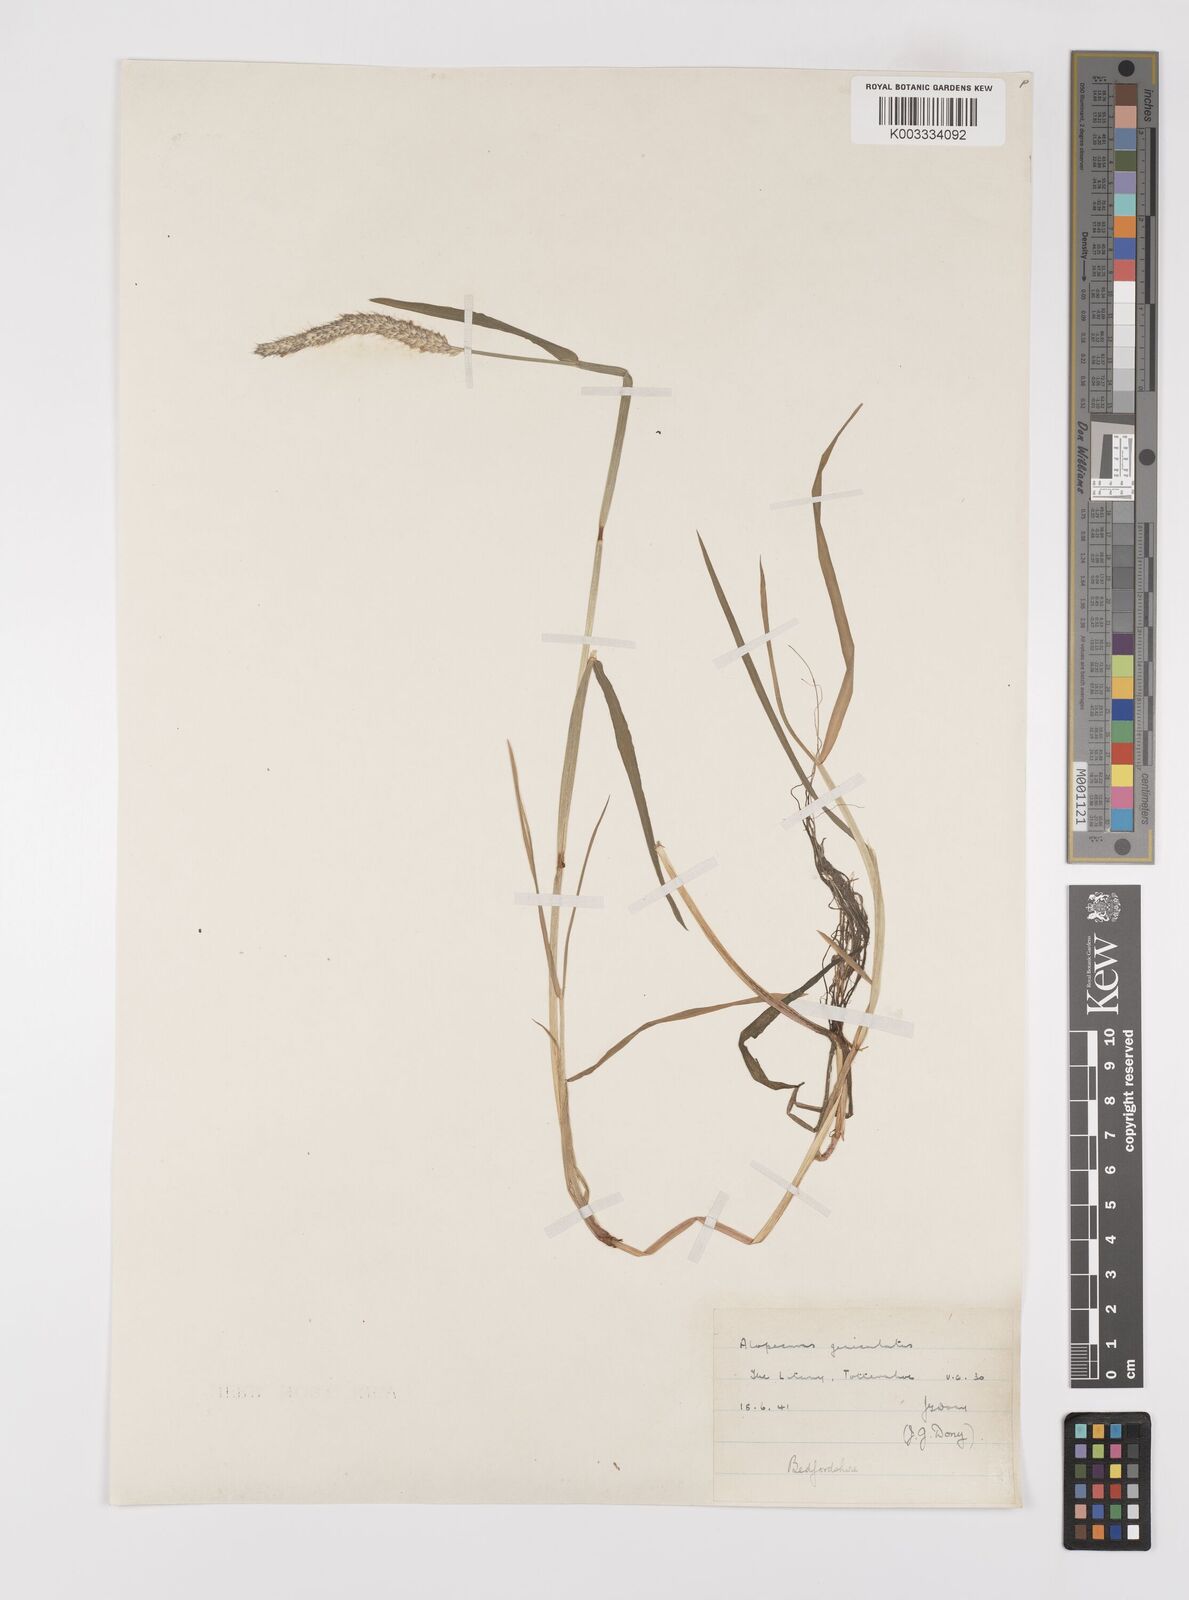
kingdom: Plantae
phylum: Tracheophyta
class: Liliopsida
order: Poales
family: Poaceae
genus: Alopecurus
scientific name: Alopecurus geniculatus
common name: Water foxtail
